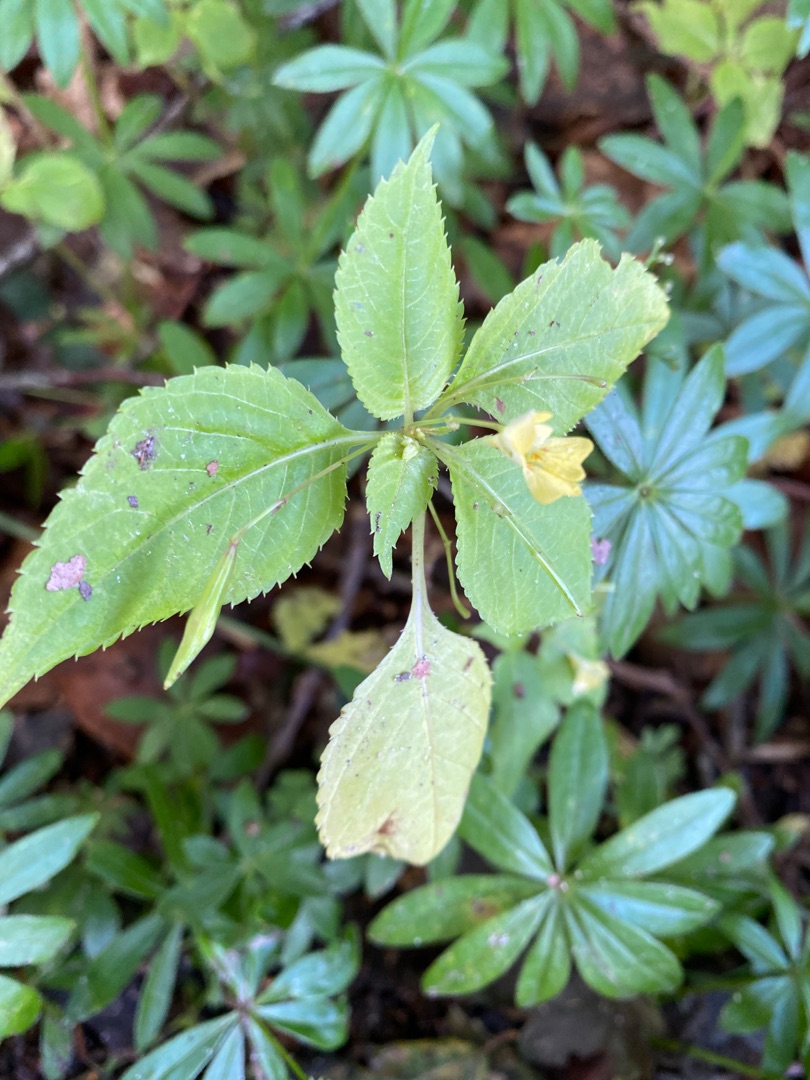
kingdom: Plantae
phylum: Tracheophyta
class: Magnoliopsida
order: Ericales
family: Balsaminaceae
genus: Impatiens
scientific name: Impatiens parviflora
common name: Småblomstret balsamin
